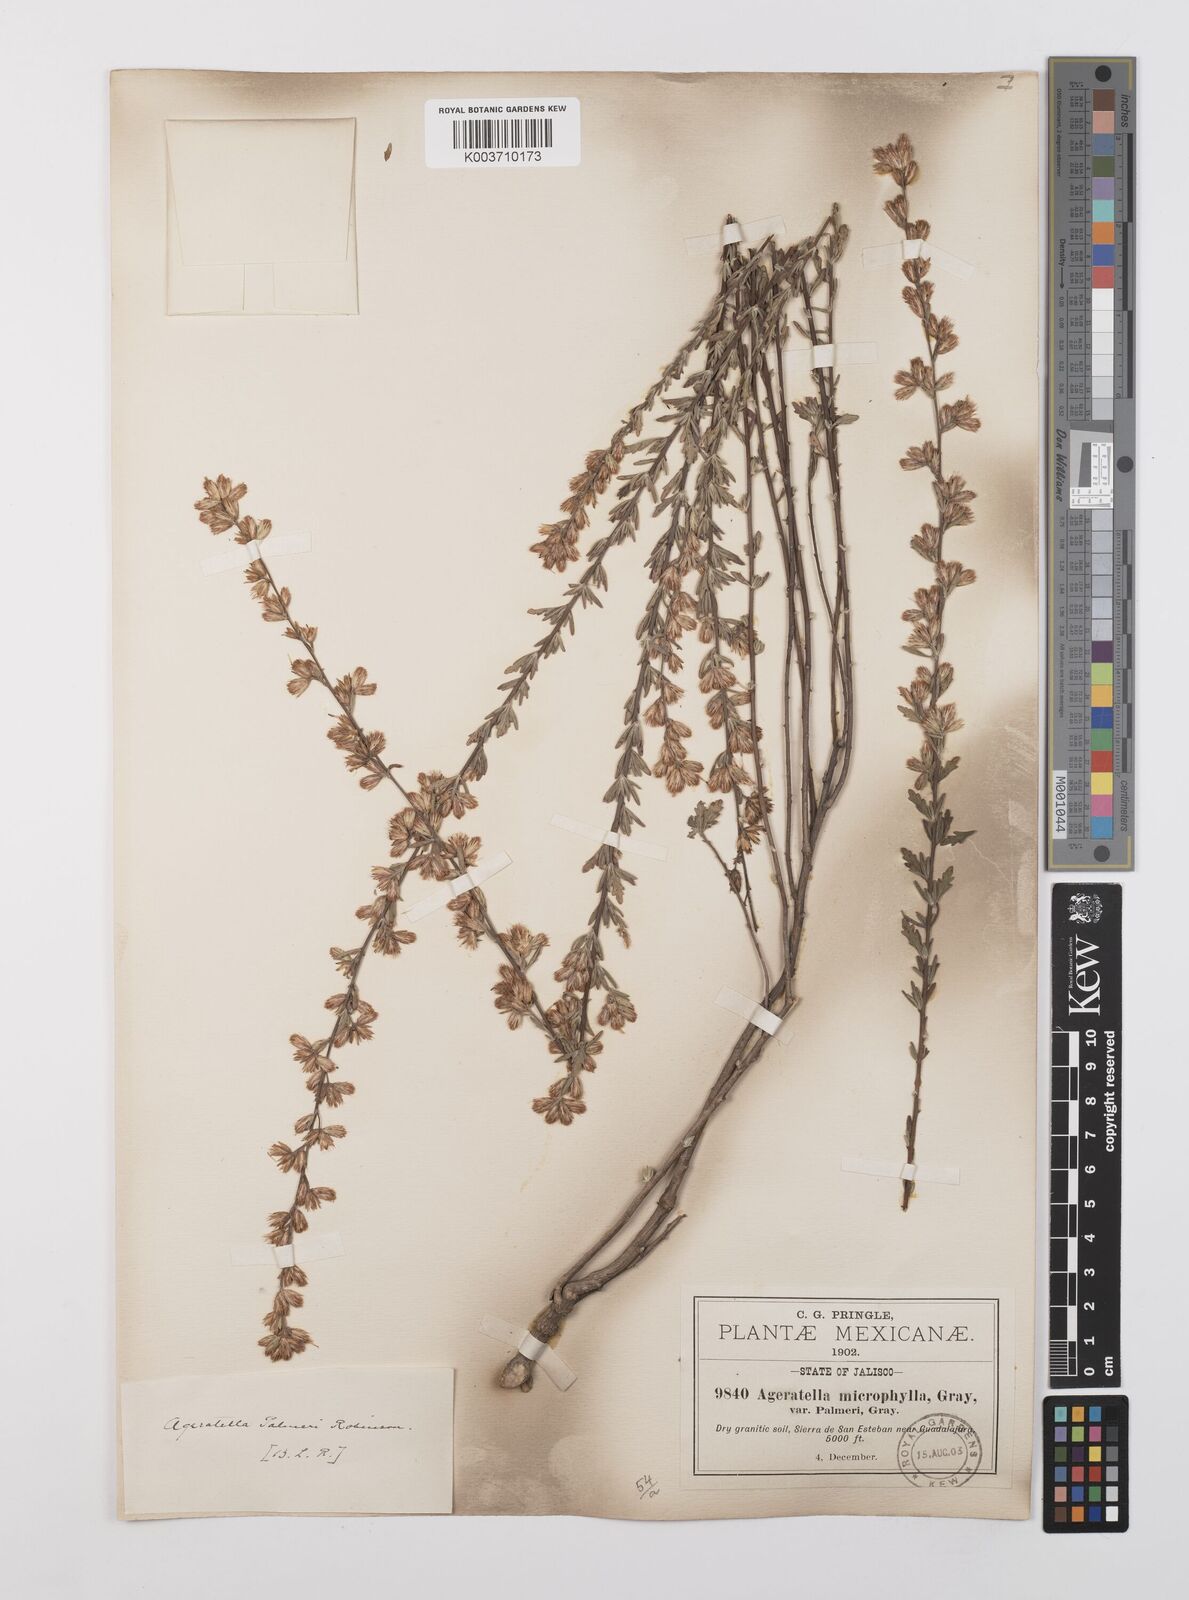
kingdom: Plantae
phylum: Tracheophyta
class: Magnoliopsida
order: Asterales
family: Asteraceae
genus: Ageratella
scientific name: Ageratella microphylla
